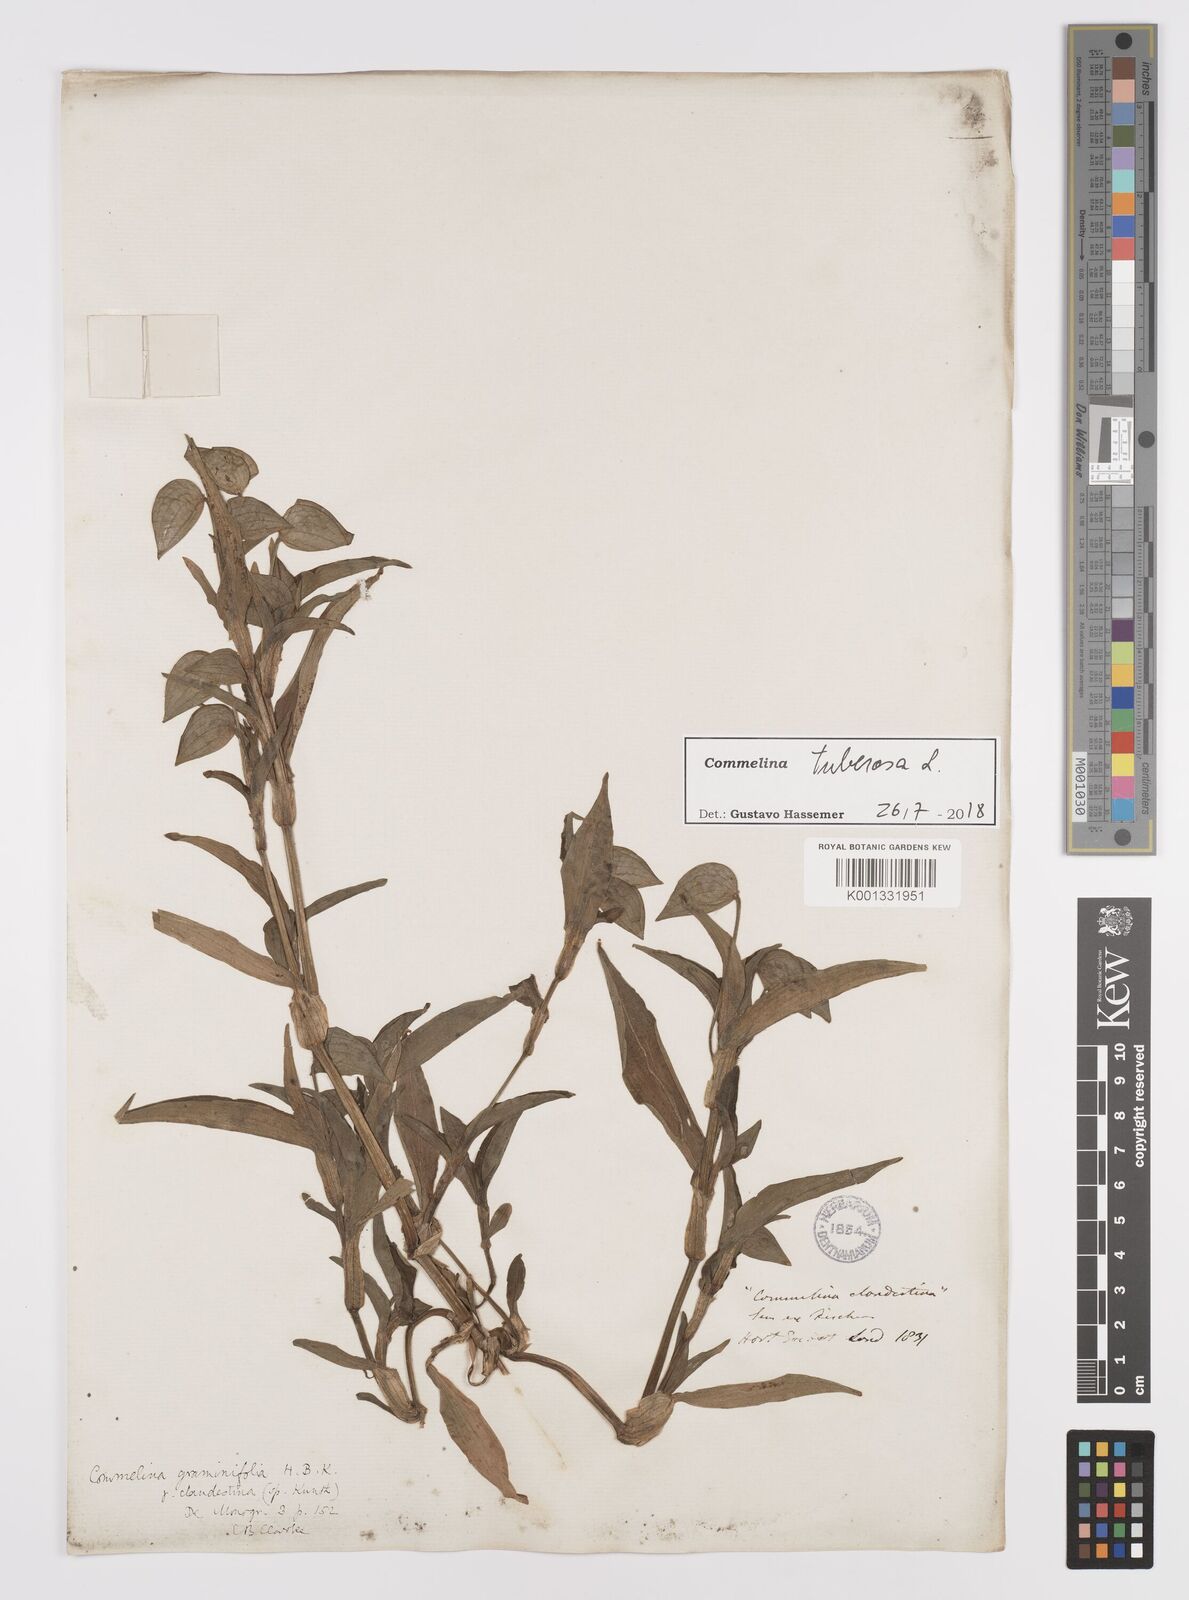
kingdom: Plantae
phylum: Tracheophyta
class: Liliopsida
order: Commelinales
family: Commelinaceae
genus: Commelina
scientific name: Commelina tuberosa
